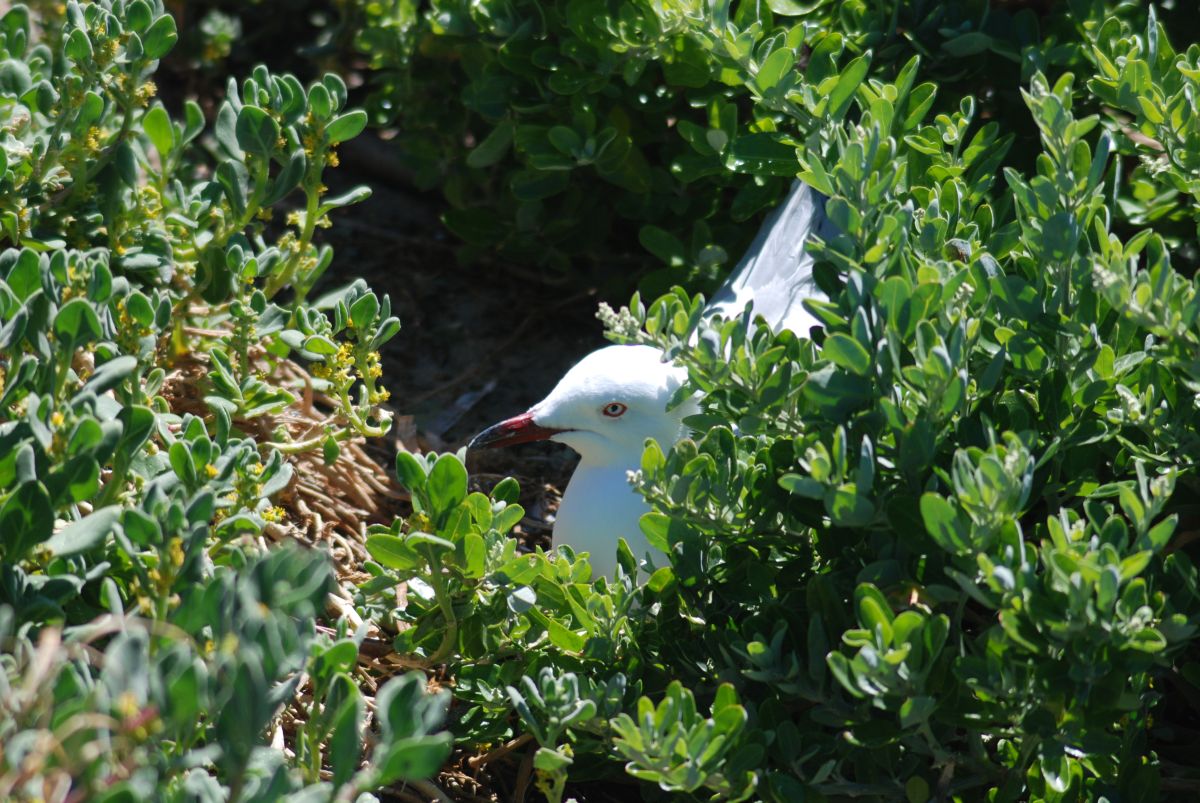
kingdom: Animalia
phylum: Chordata
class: Aves
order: Charadriiformes
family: Laridae
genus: Chroicocephalus
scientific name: Chroicocephalus novaehollandiae
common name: Silver gull
